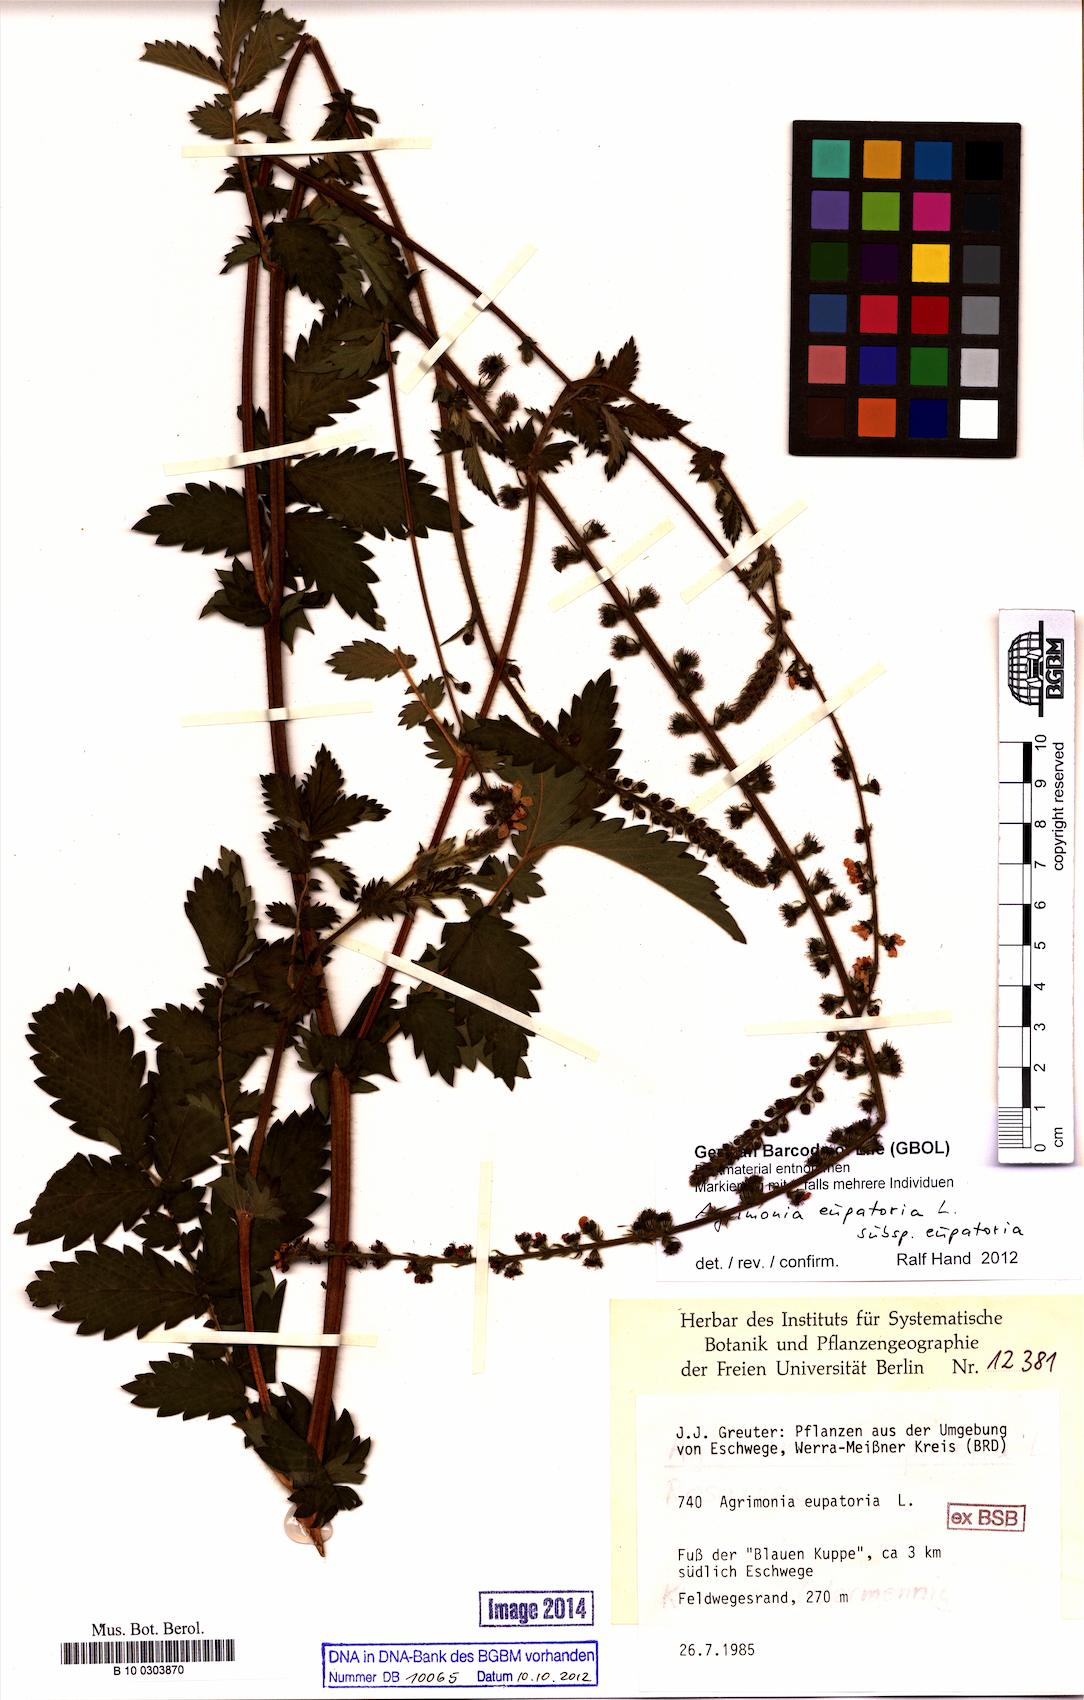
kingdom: Plantae
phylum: Tracheophyta
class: Magnoliopsida
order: Rosales
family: Rosaceae
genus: Agrimonia
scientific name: Agrimonia eupatoria
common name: Agrimony
